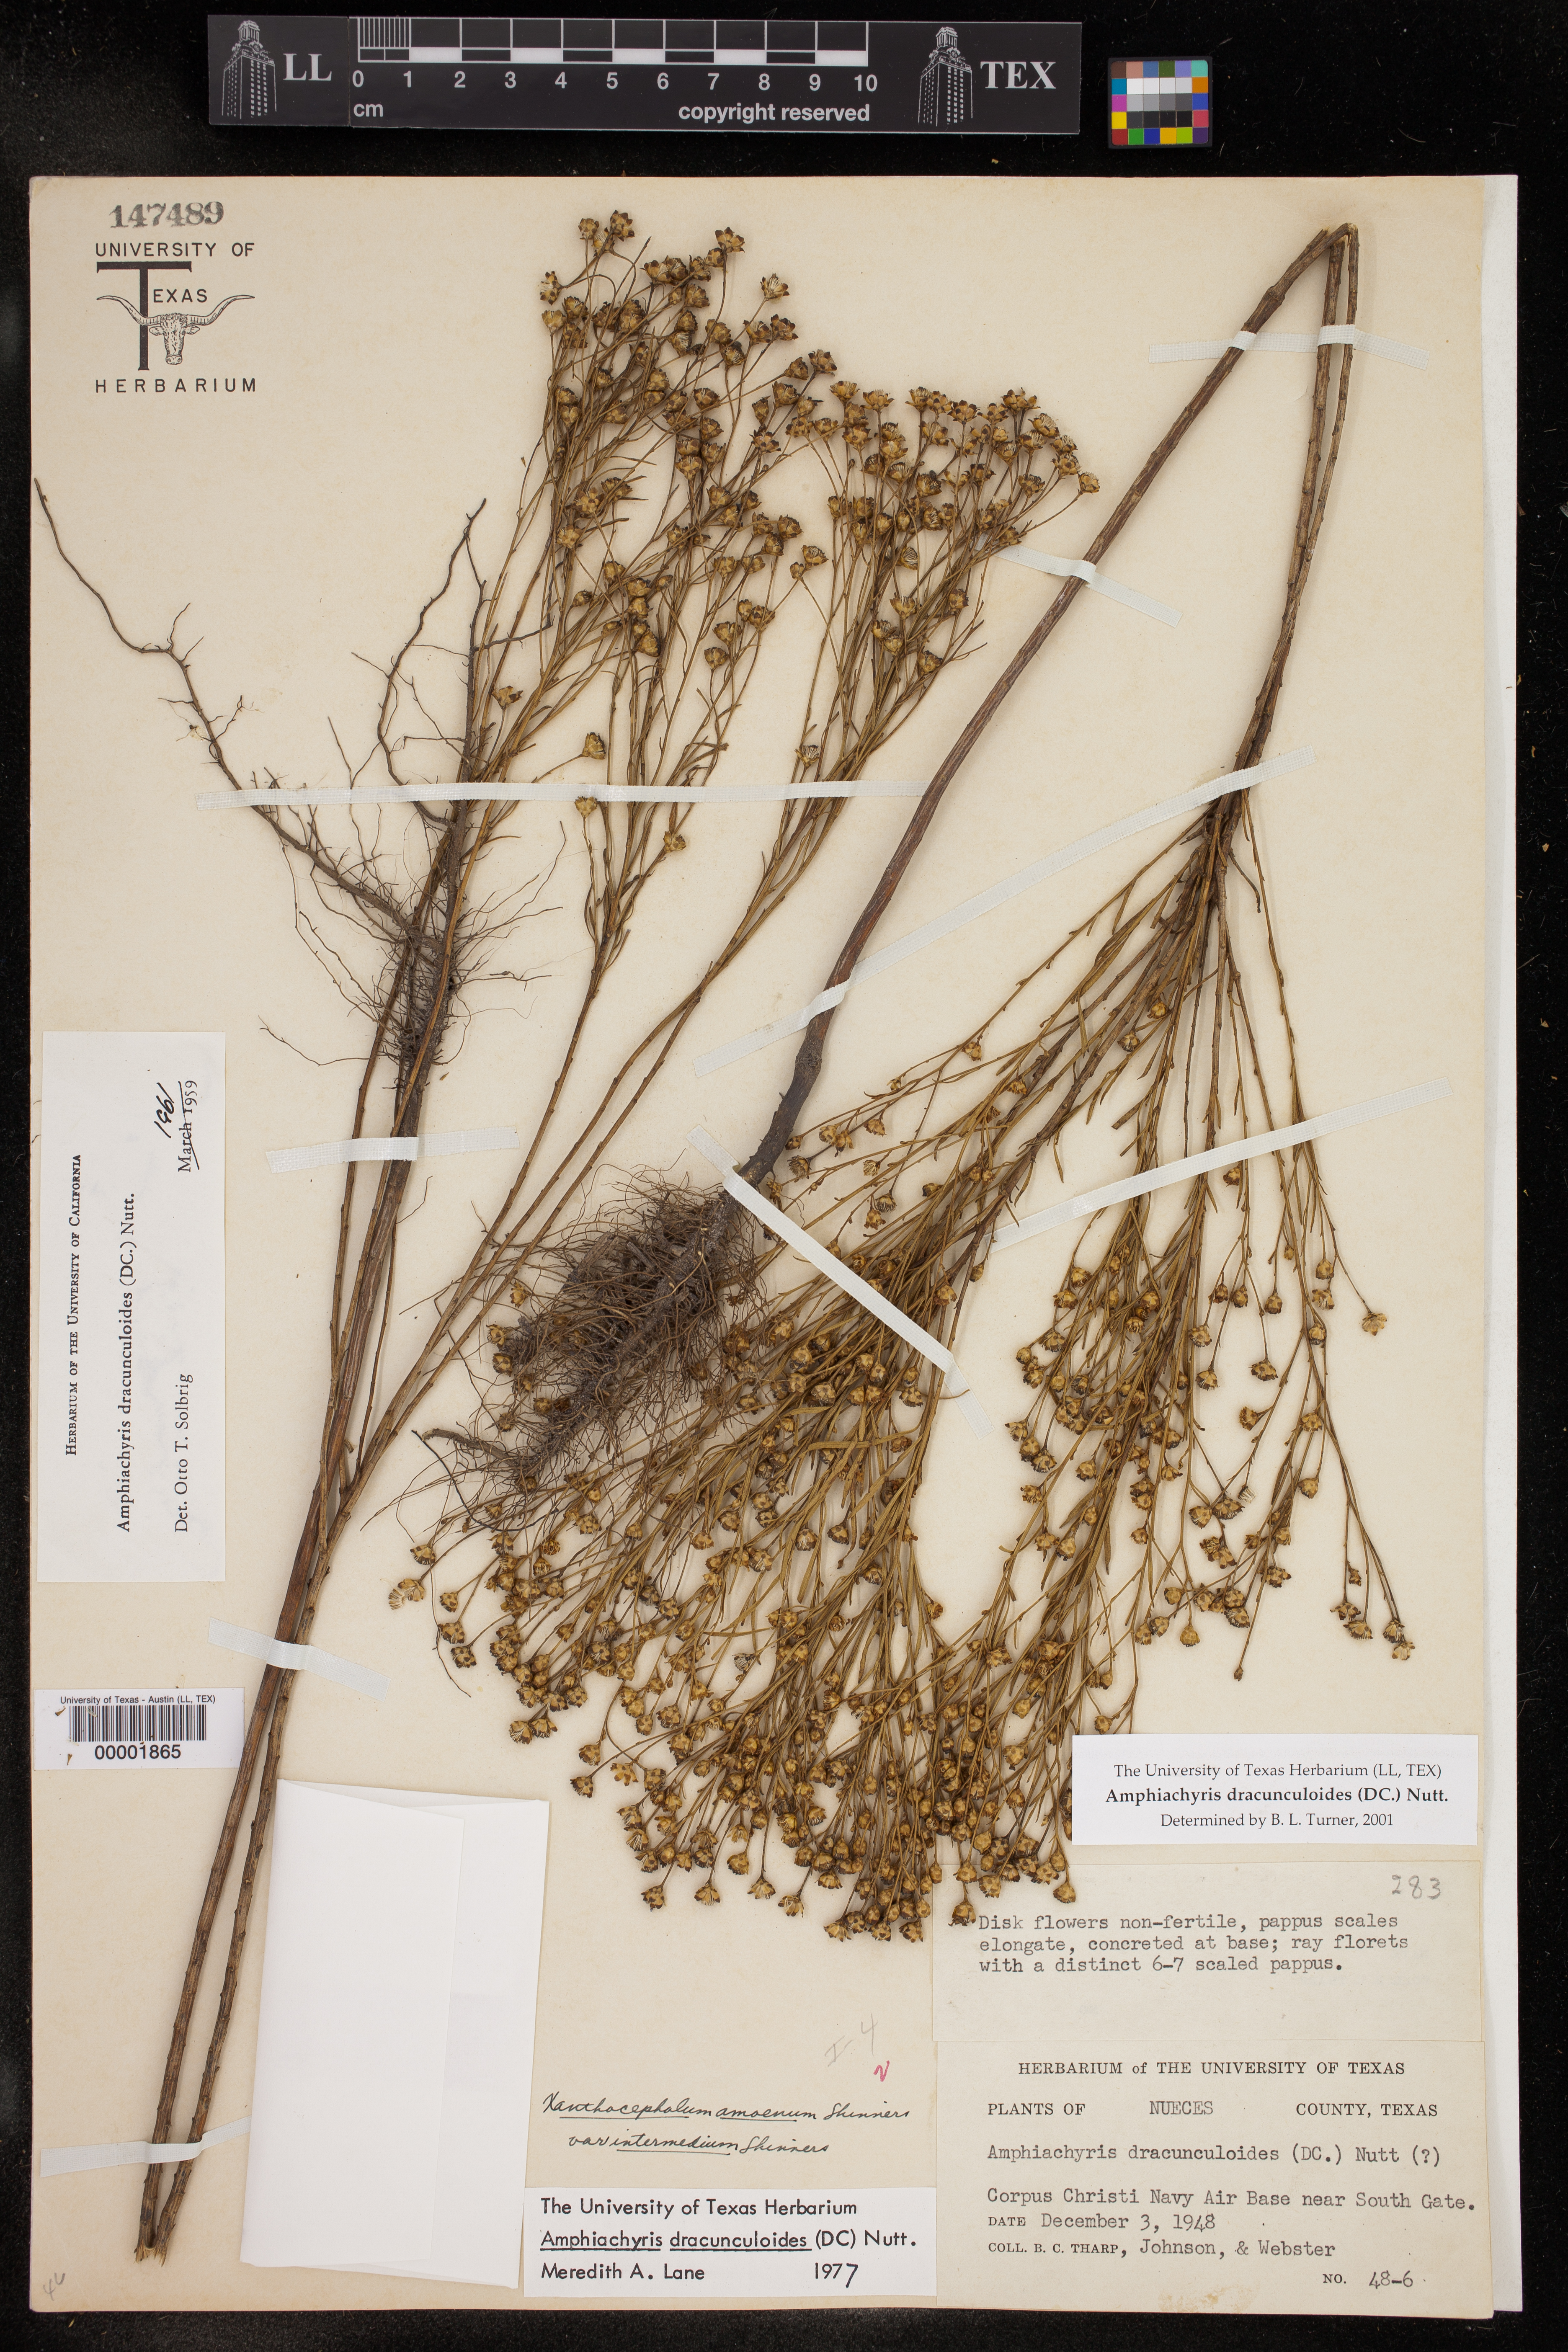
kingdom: Plantae
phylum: Tracheophyta
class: Magnoliopsida
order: Asterales
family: Asteraceae
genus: Amphiachyris
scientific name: Amphiachyris dracunculoides
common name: Broomweed
